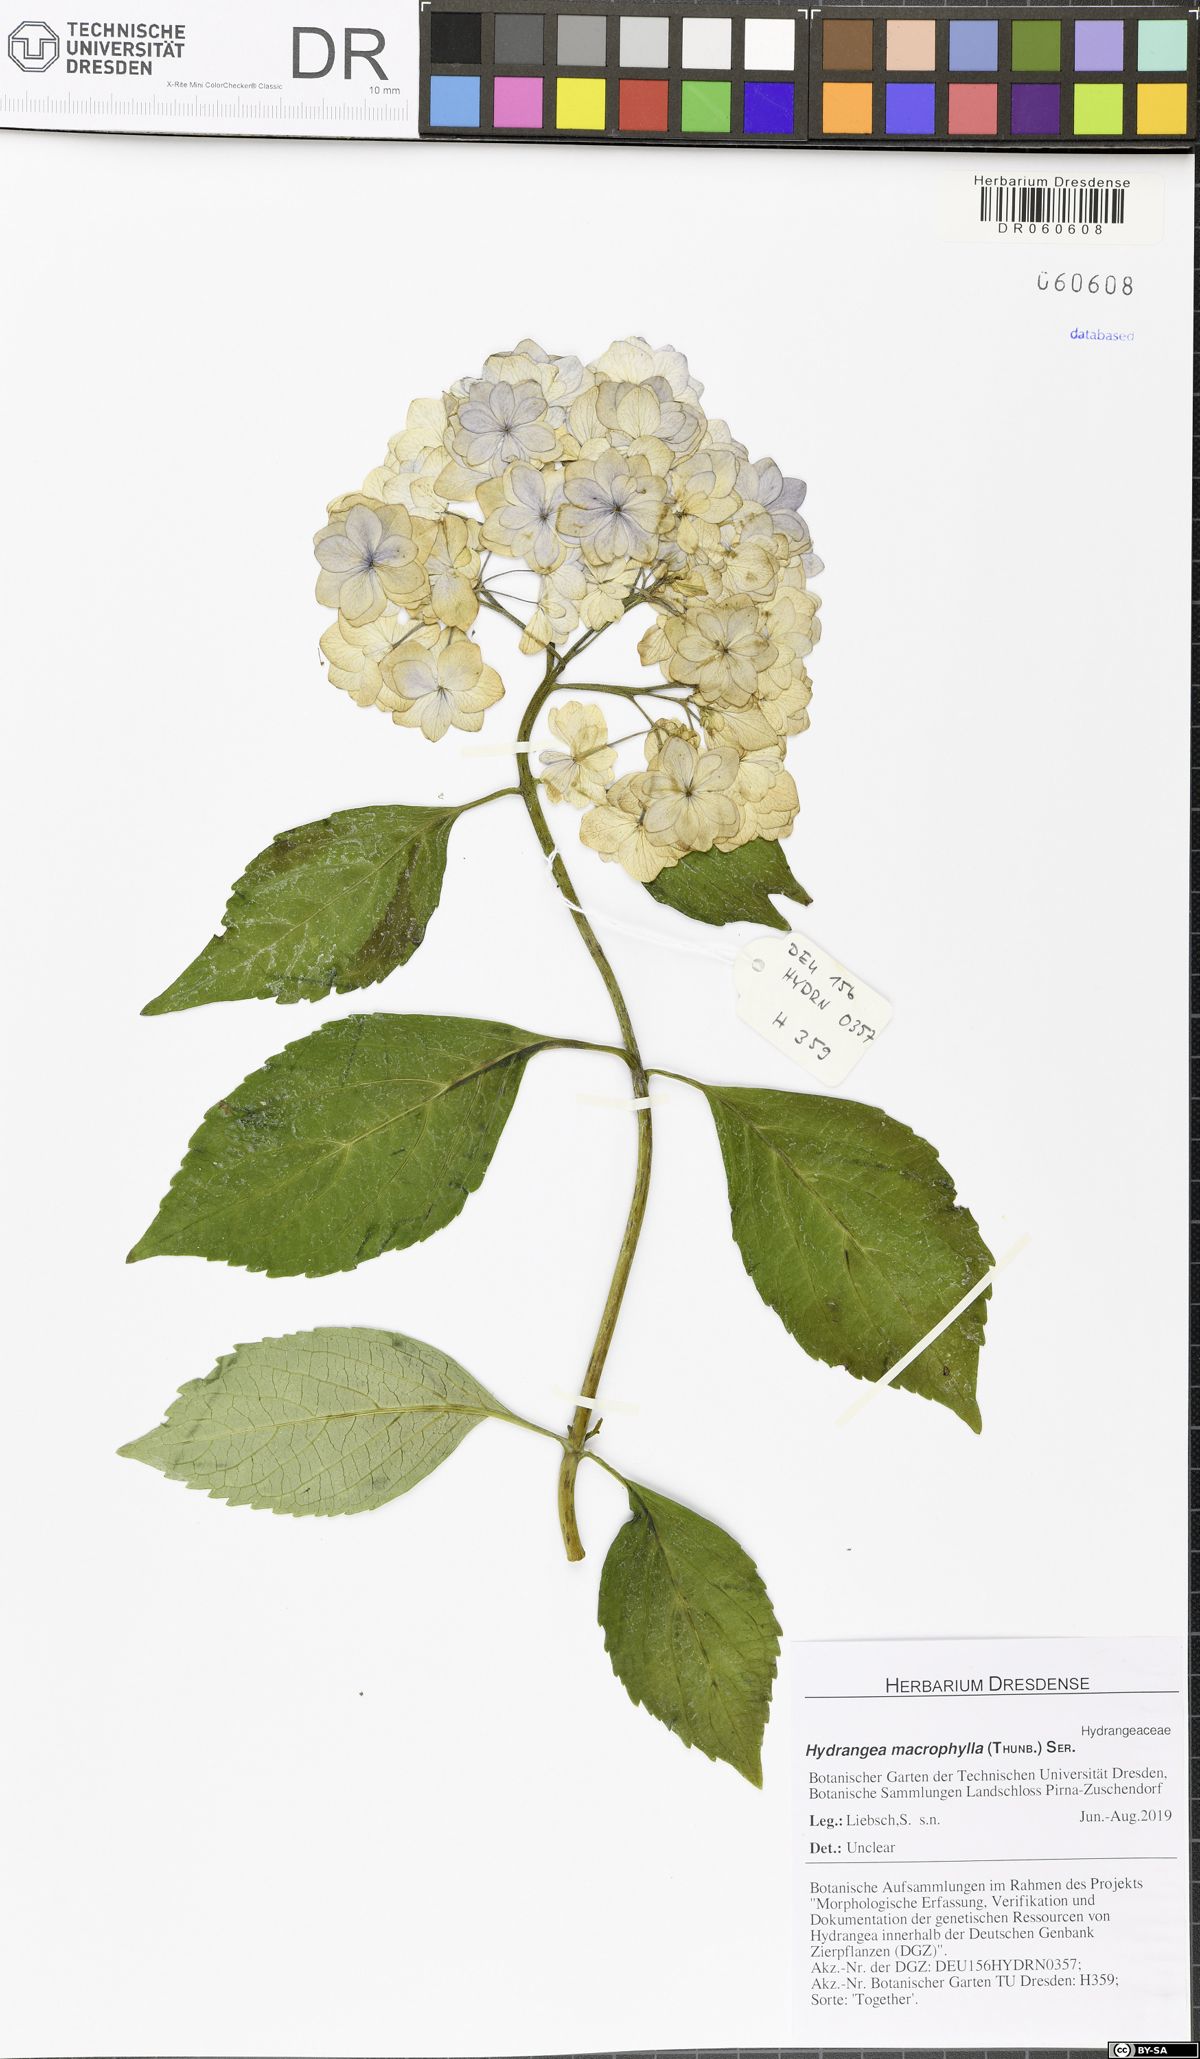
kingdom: Plantae
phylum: Tracheophyta
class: Magnoliopsida
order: Cornales
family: Hydrangeaceae
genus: Hydrangea
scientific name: Hydrangea macrophylla
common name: Hydrangea
